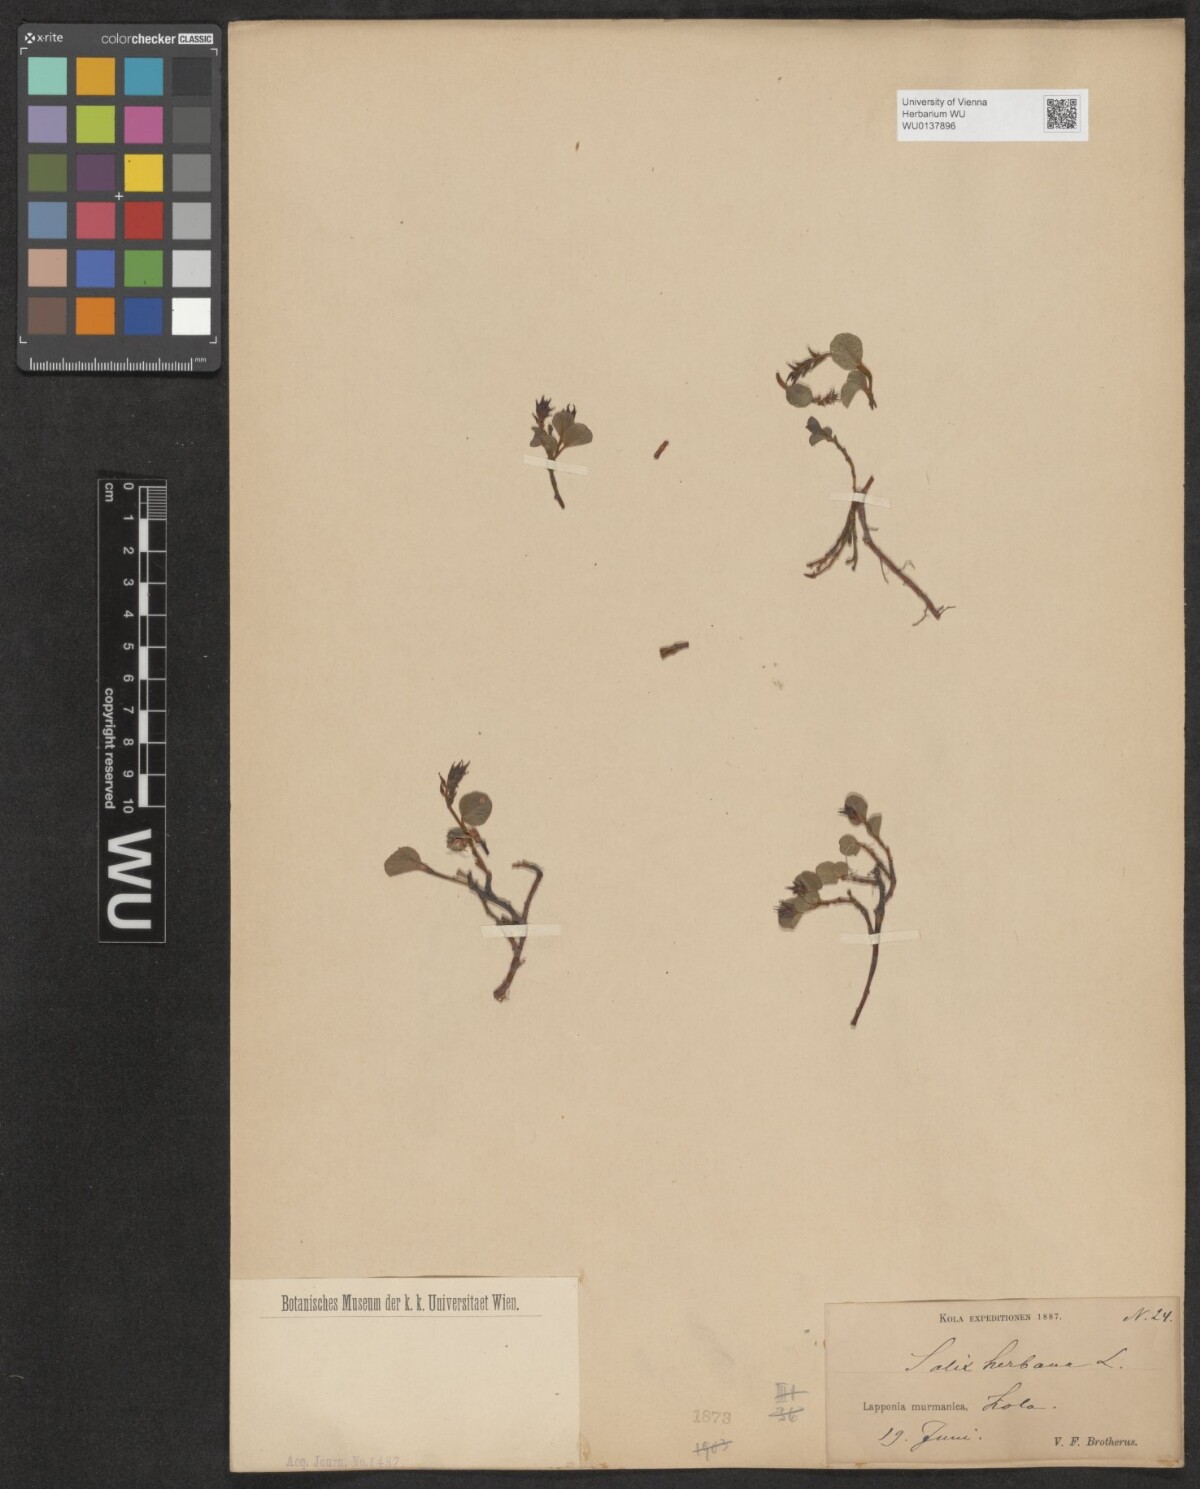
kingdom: Plantae
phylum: Tracheophyta
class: Magnoliopsida
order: Malpighiales
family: Salicaceae
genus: Salix
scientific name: Salix herbacea
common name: Dwarf willow
